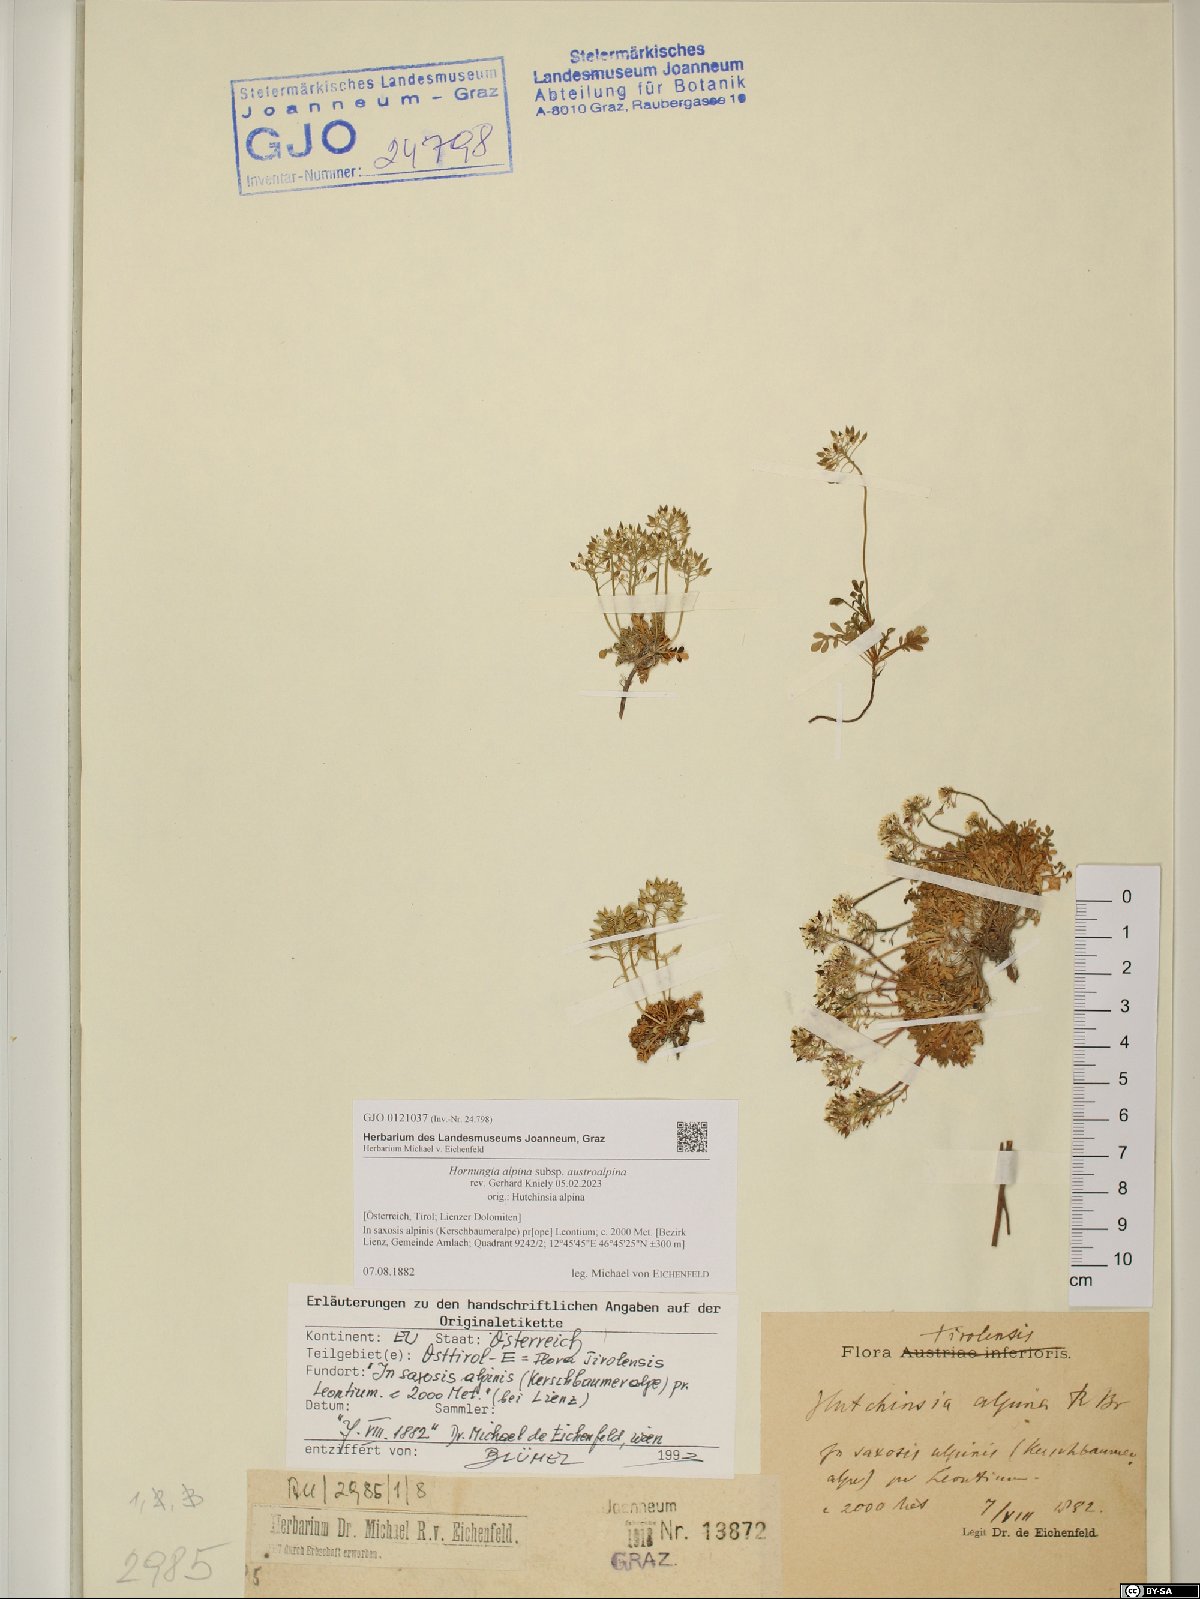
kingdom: Plantae
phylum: Tracheophyta
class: Magnoliopsida
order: Brassicales
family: Brassicaceae
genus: Hornungia
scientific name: Hornungia alpina
